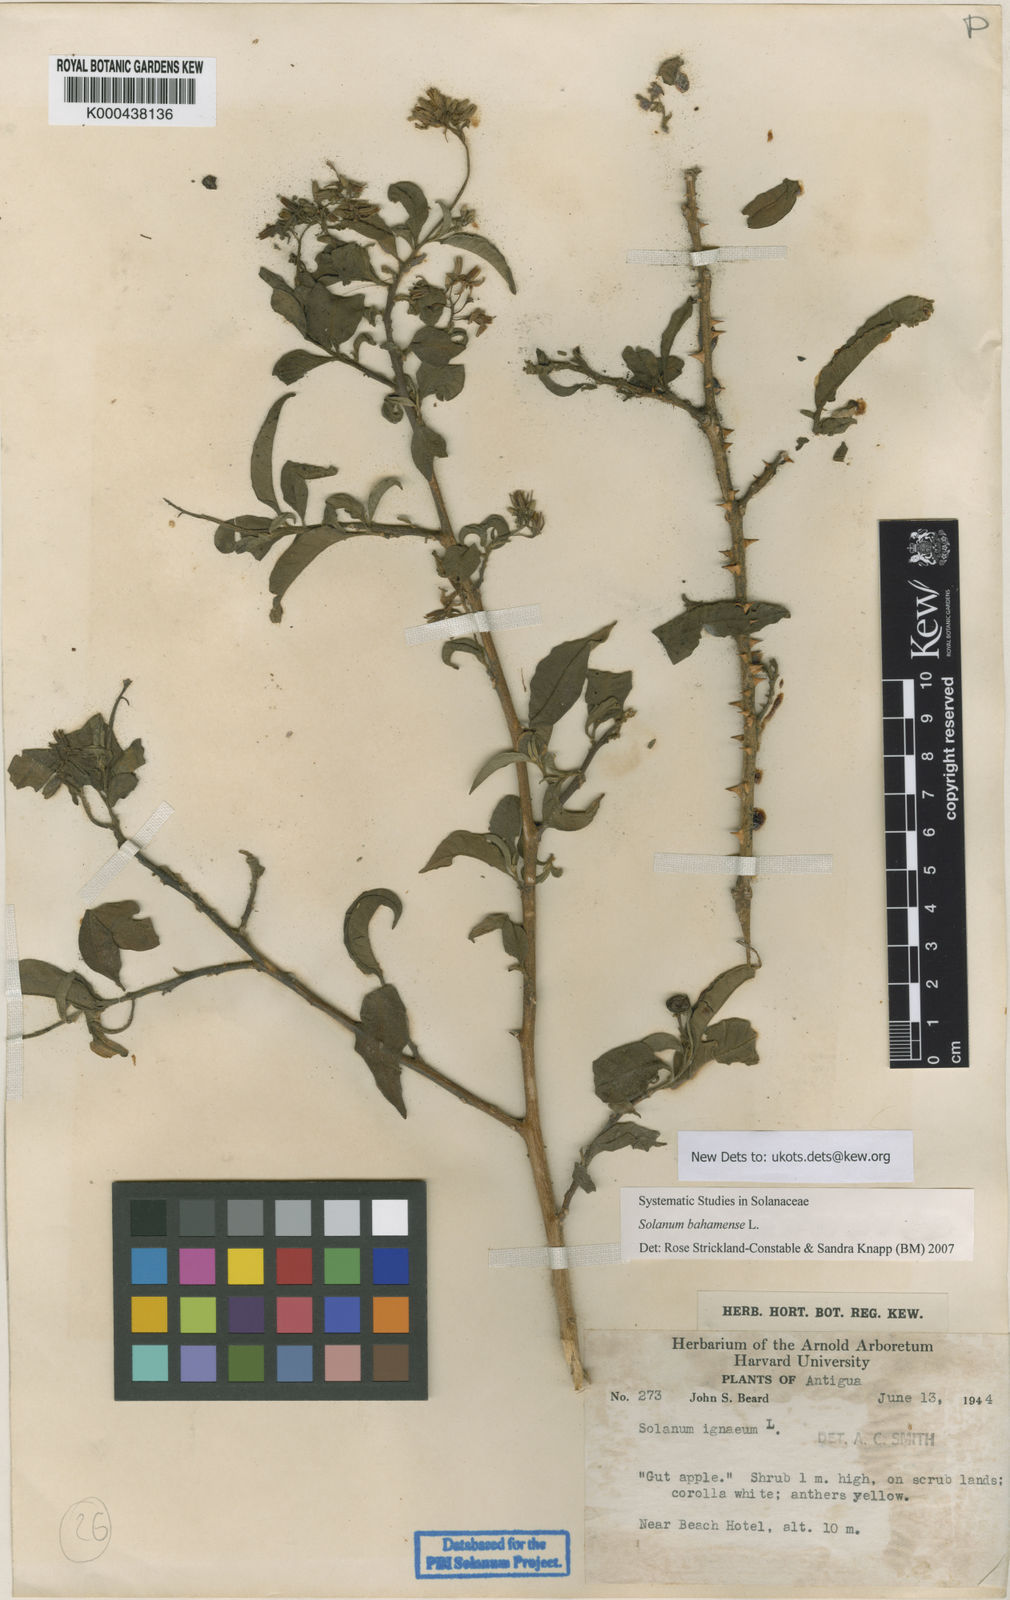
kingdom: Plantae
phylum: Tracheophyta
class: Magnoliopsida
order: Solanales
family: Solanaceae
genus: Solanum
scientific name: Solanum bahamense
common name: Canker-berry
